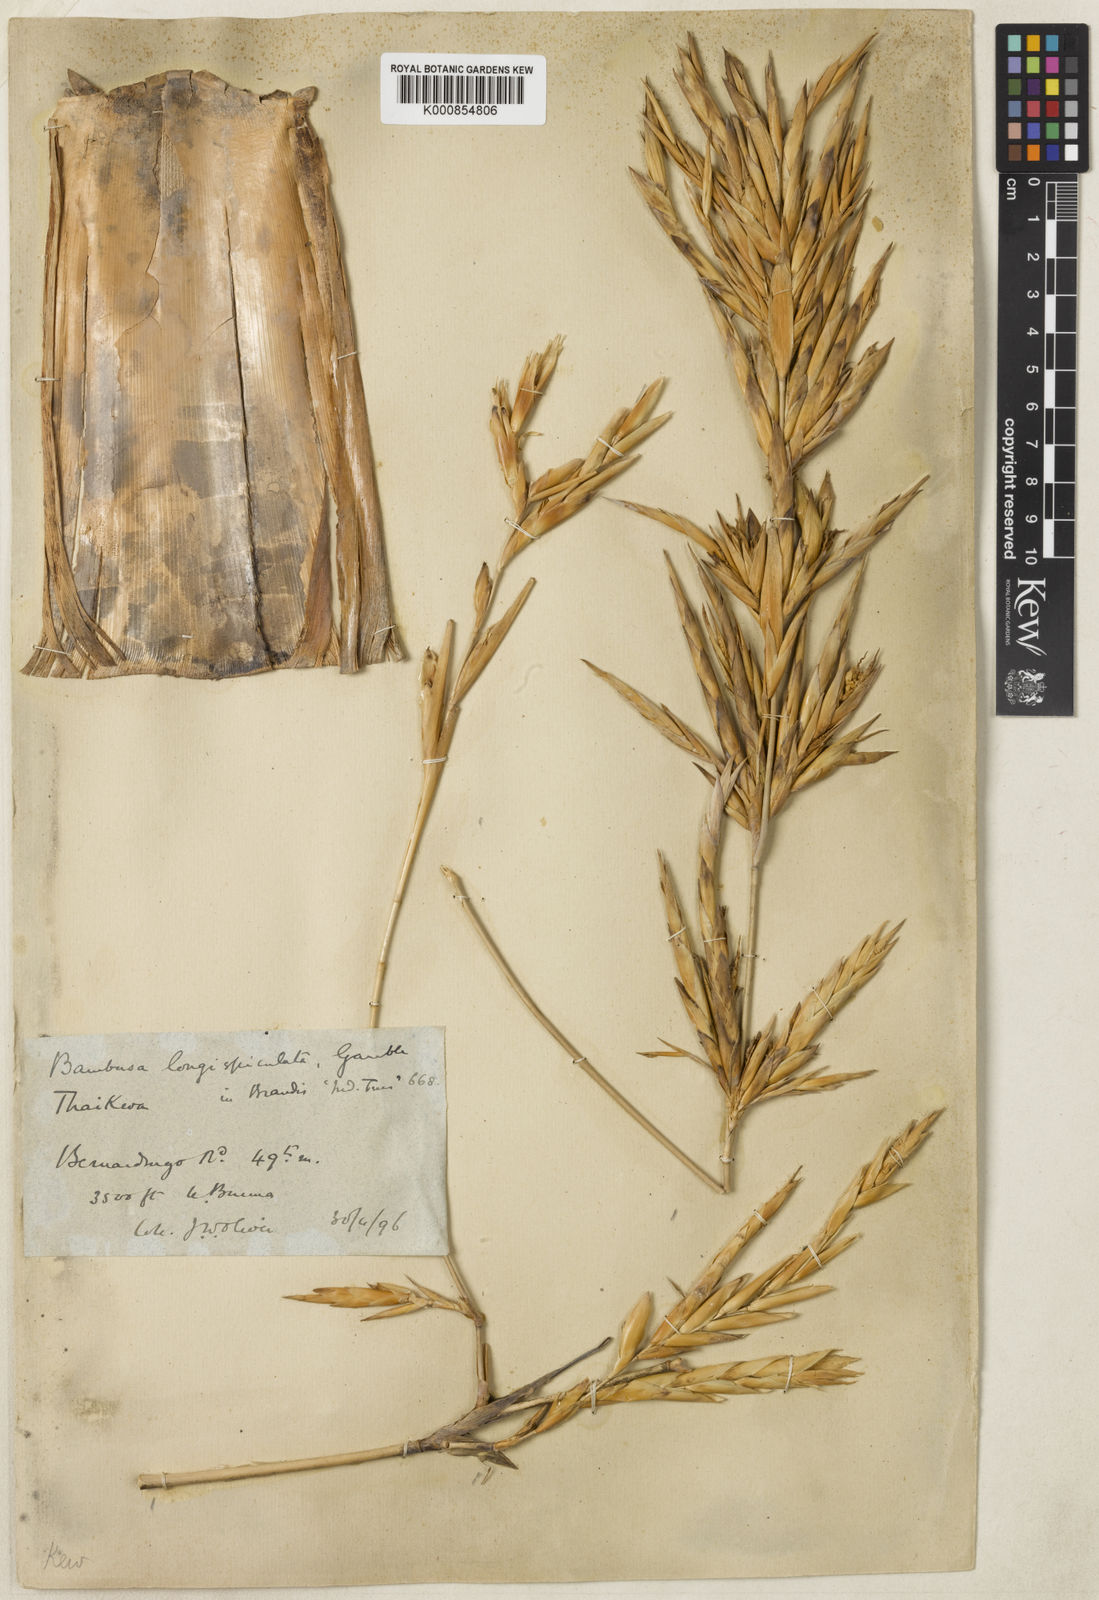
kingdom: Plantae
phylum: Tracheophyta
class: Liliopsida
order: Poales
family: Poaceae
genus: Bambusa
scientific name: Bambusa
